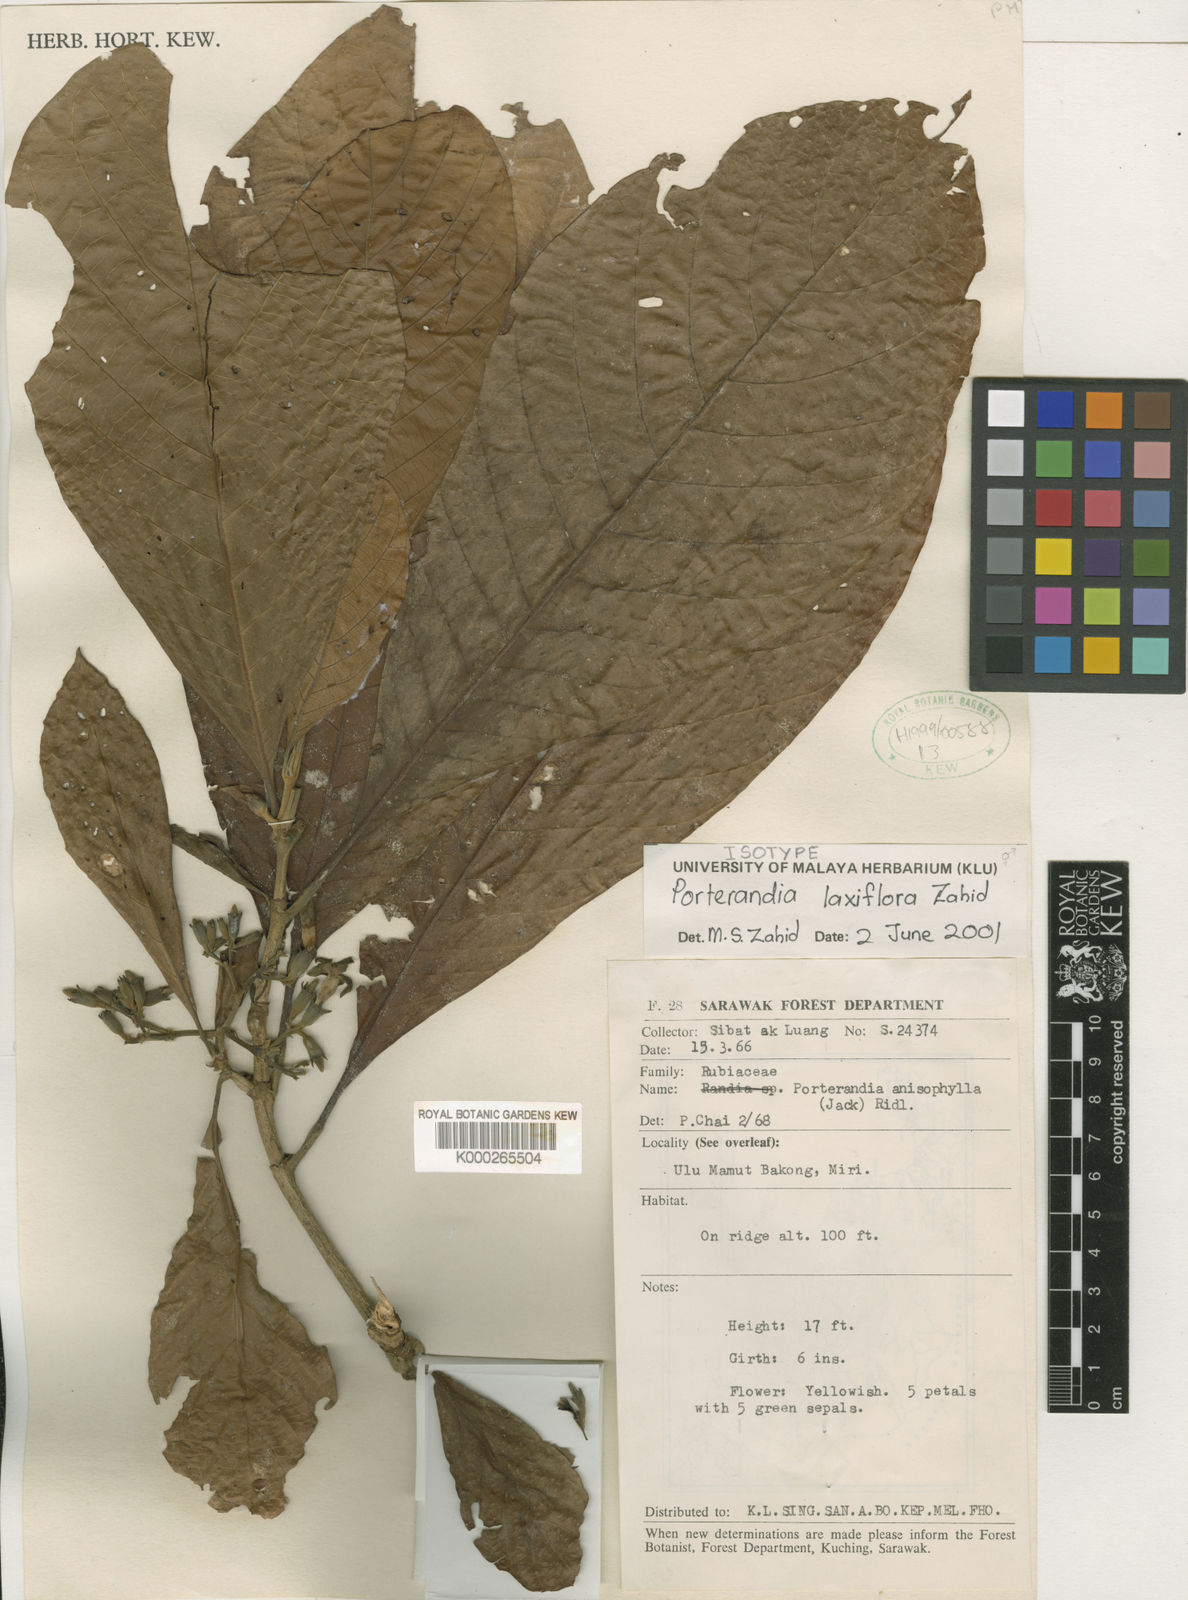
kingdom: Plantae
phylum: Tracheophyta
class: Magnoliopsida
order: Gentianales
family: Rubiaceae
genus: Porterandia
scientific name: Porterandia laxiflora
